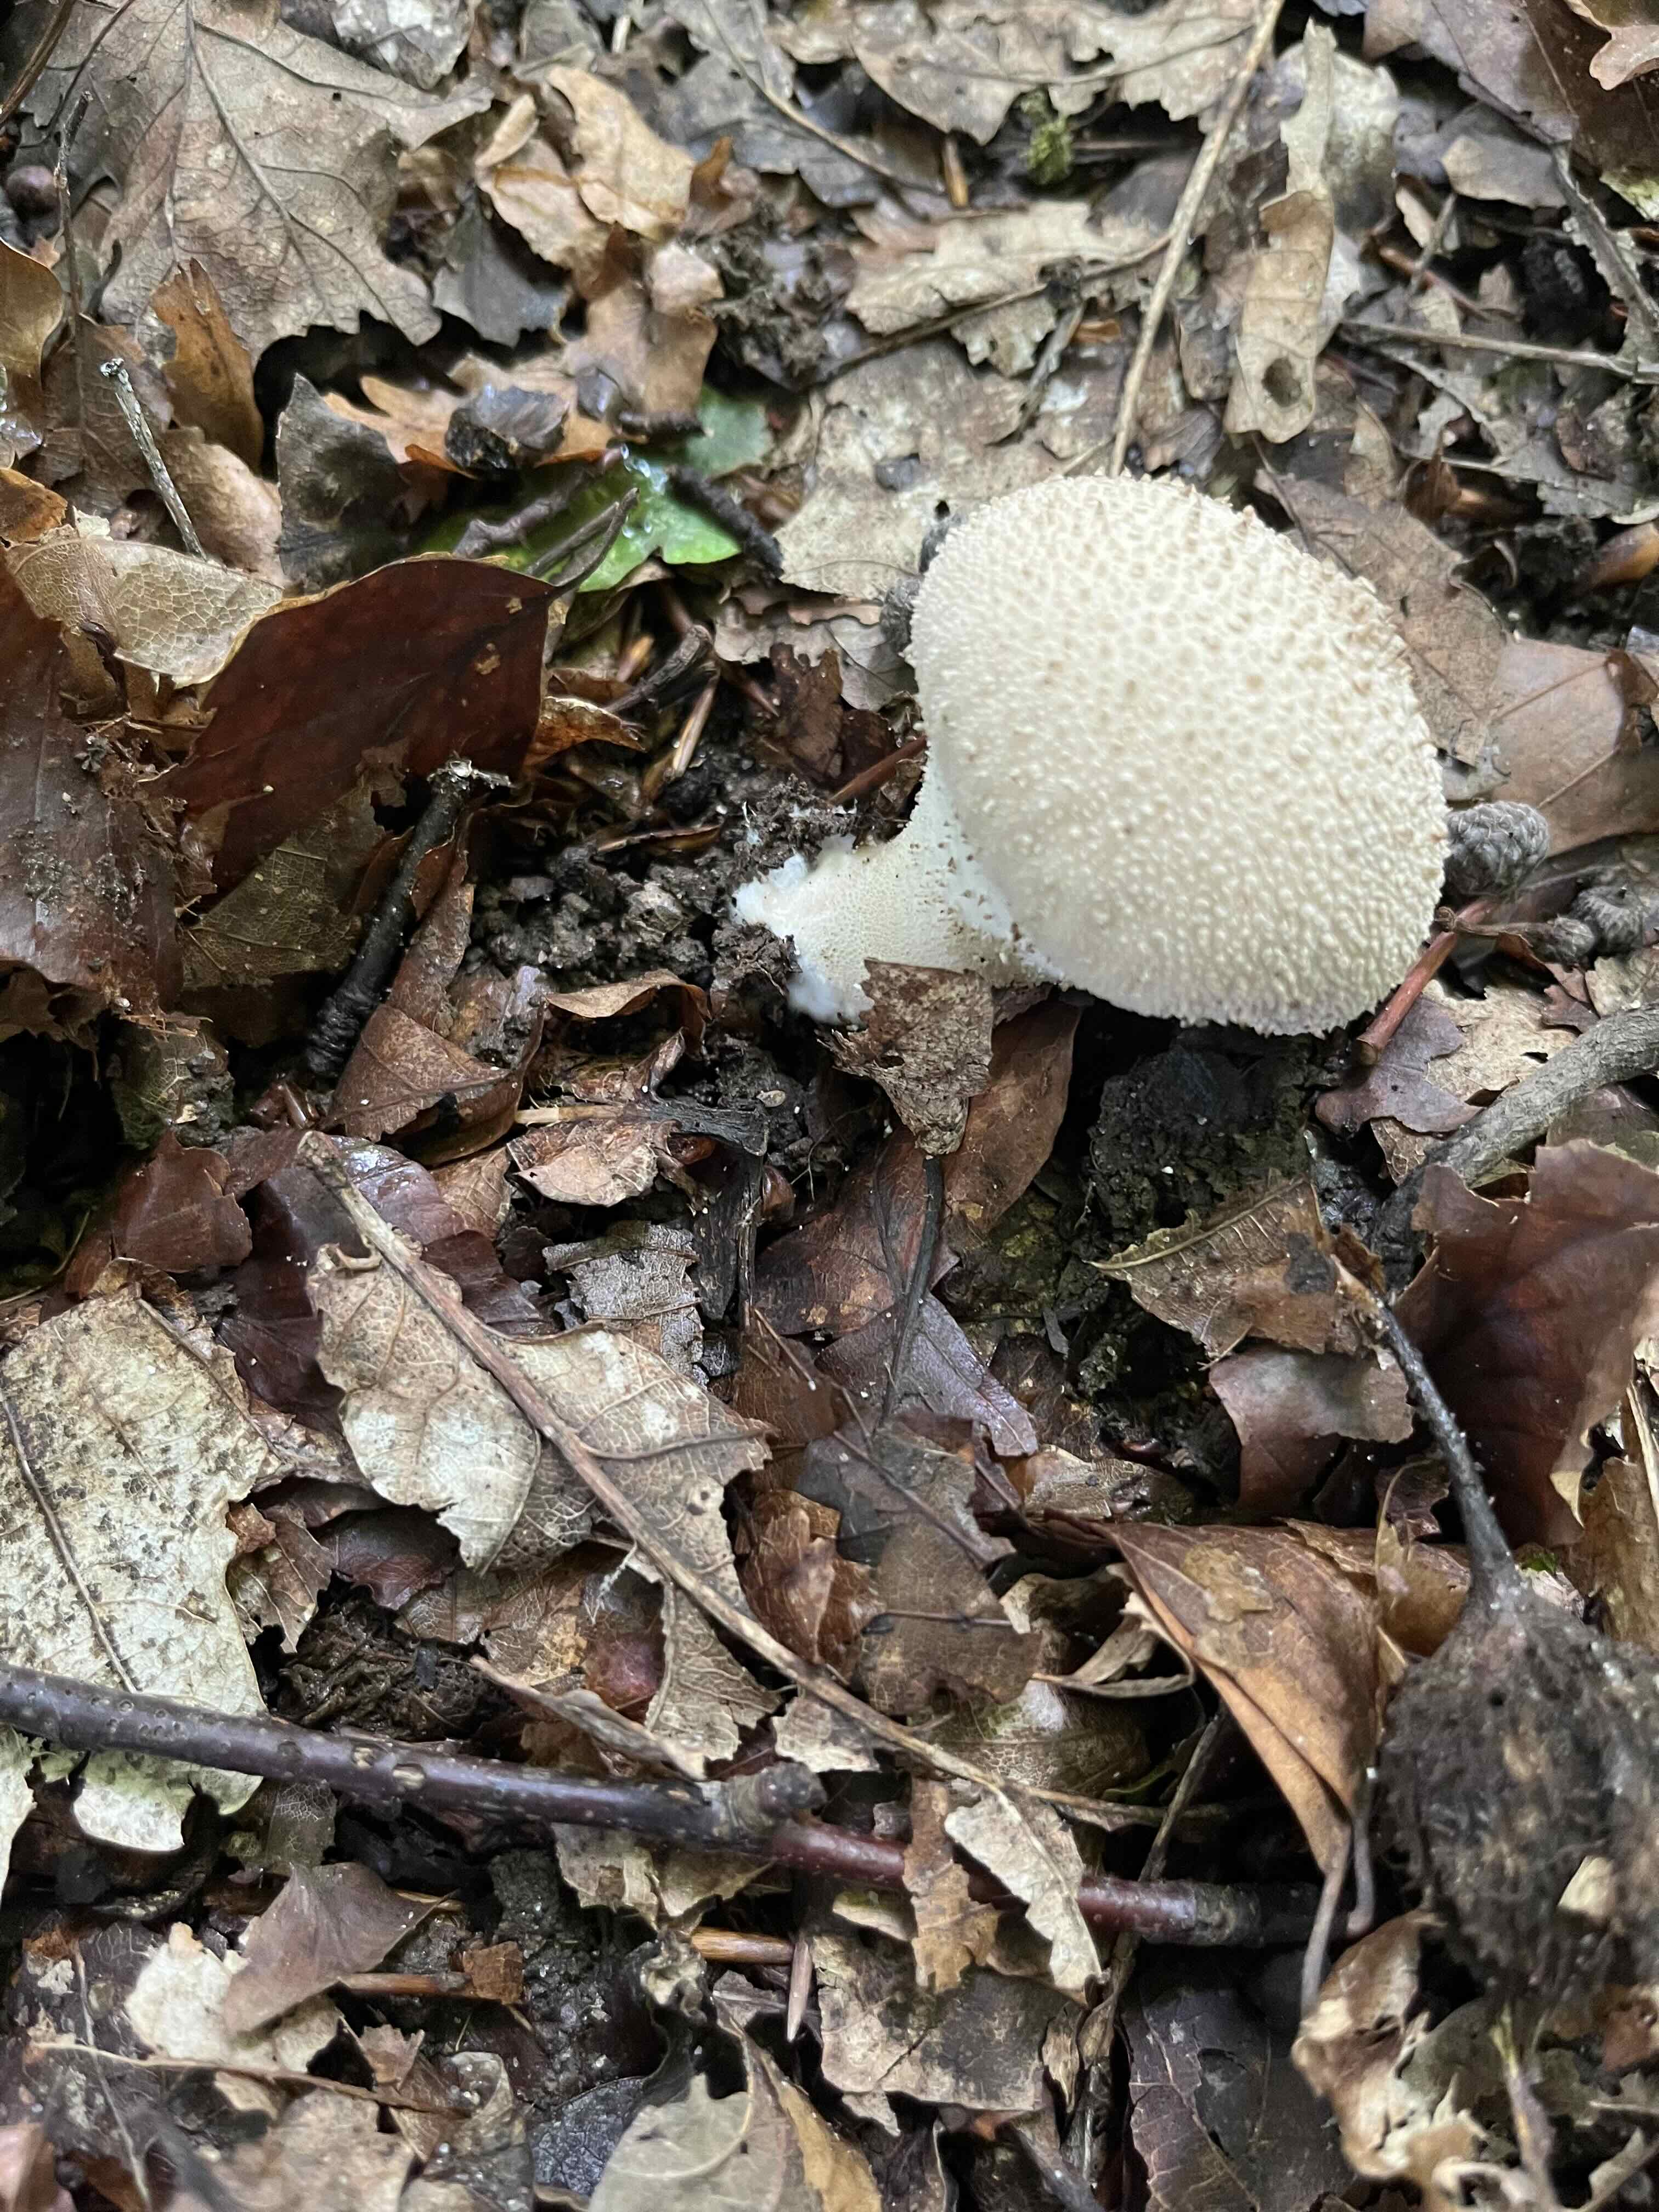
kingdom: Fungi
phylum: Basidiomycota
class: Agaricomycetes
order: Agaricales
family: Lycoperdaceae
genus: Lycoperdon
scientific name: Lycoperdon perlatum
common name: krystal-støvbold
